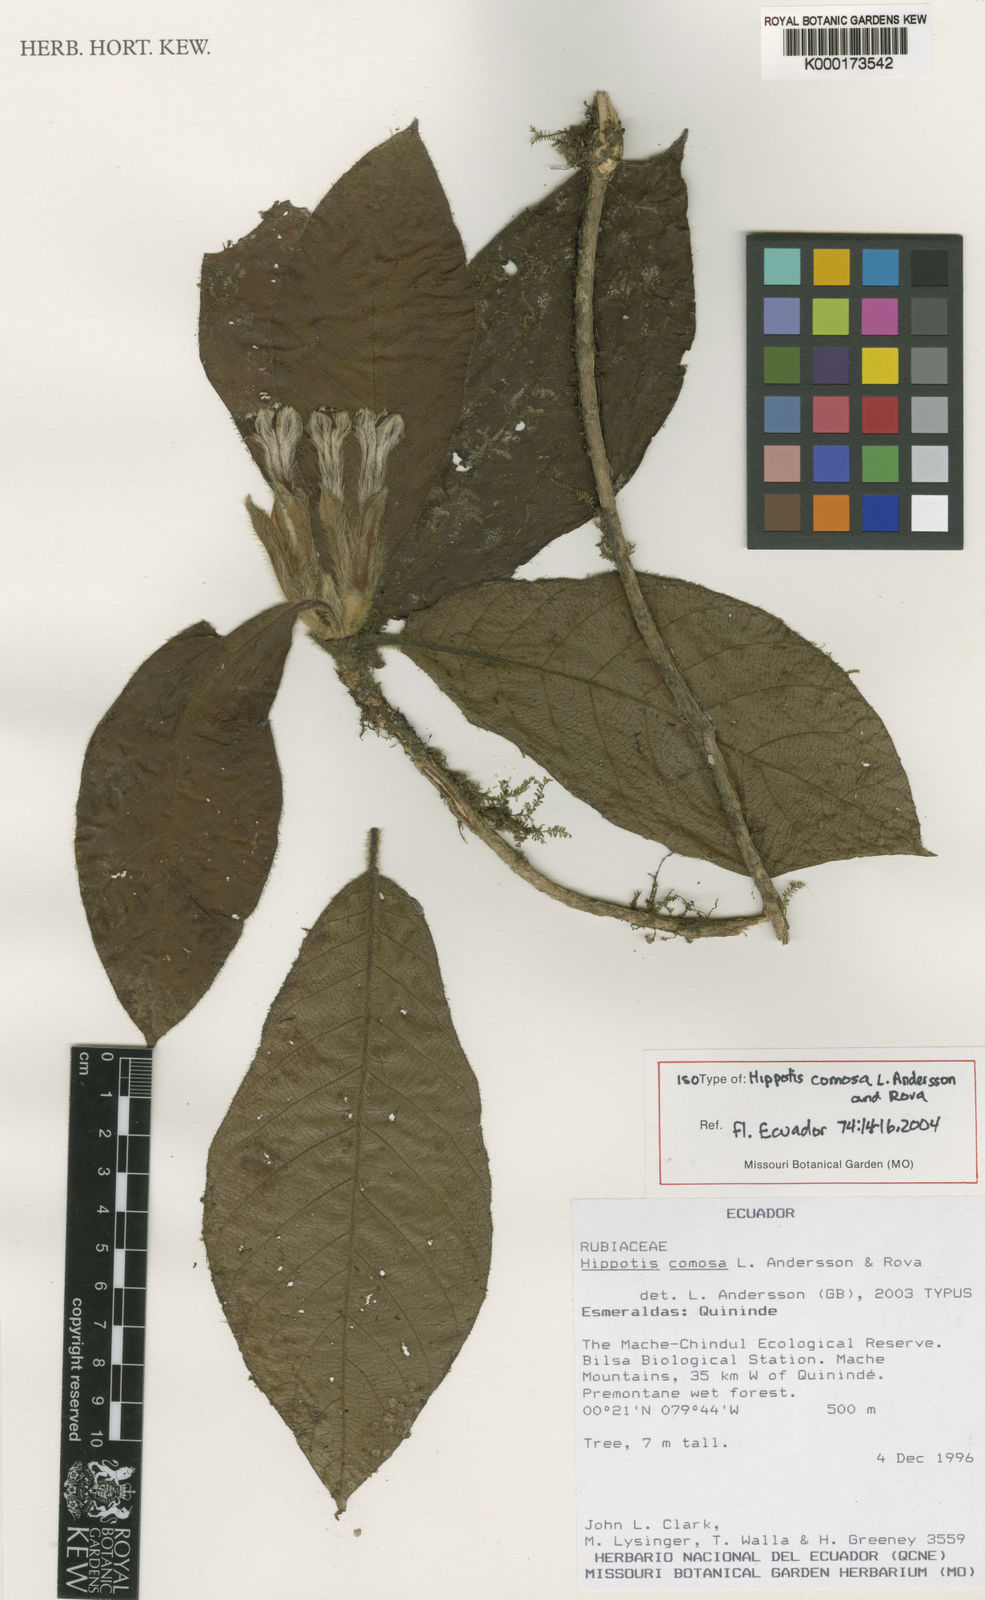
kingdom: Plantae
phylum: Tracheophyta
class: Magnoliopsida
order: Gentianales
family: Rubiaceae
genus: Hippotis
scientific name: Hippotis comosa
